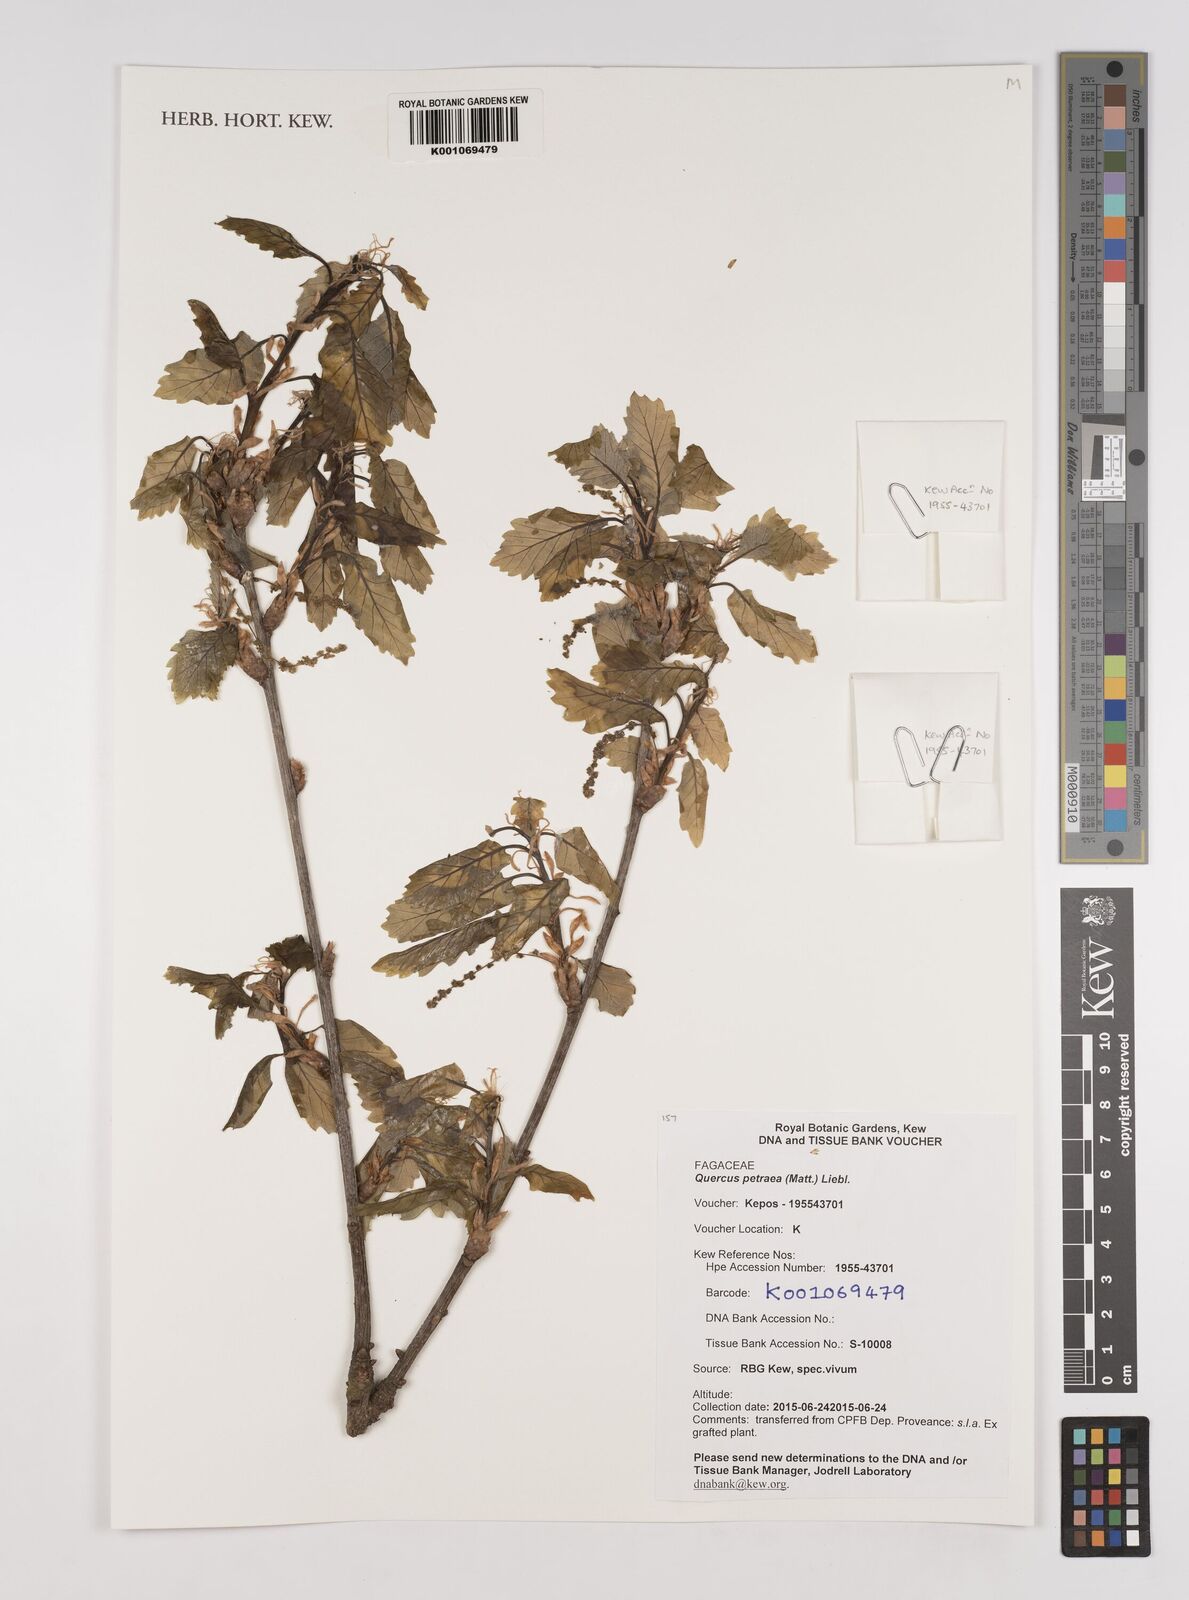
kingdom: Plantae
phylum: Tracheophyta
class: Magnoliopsida
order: Fagales
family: Fagaceae
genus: Quercus
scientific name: Quercus petraea
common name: Sessile oak
